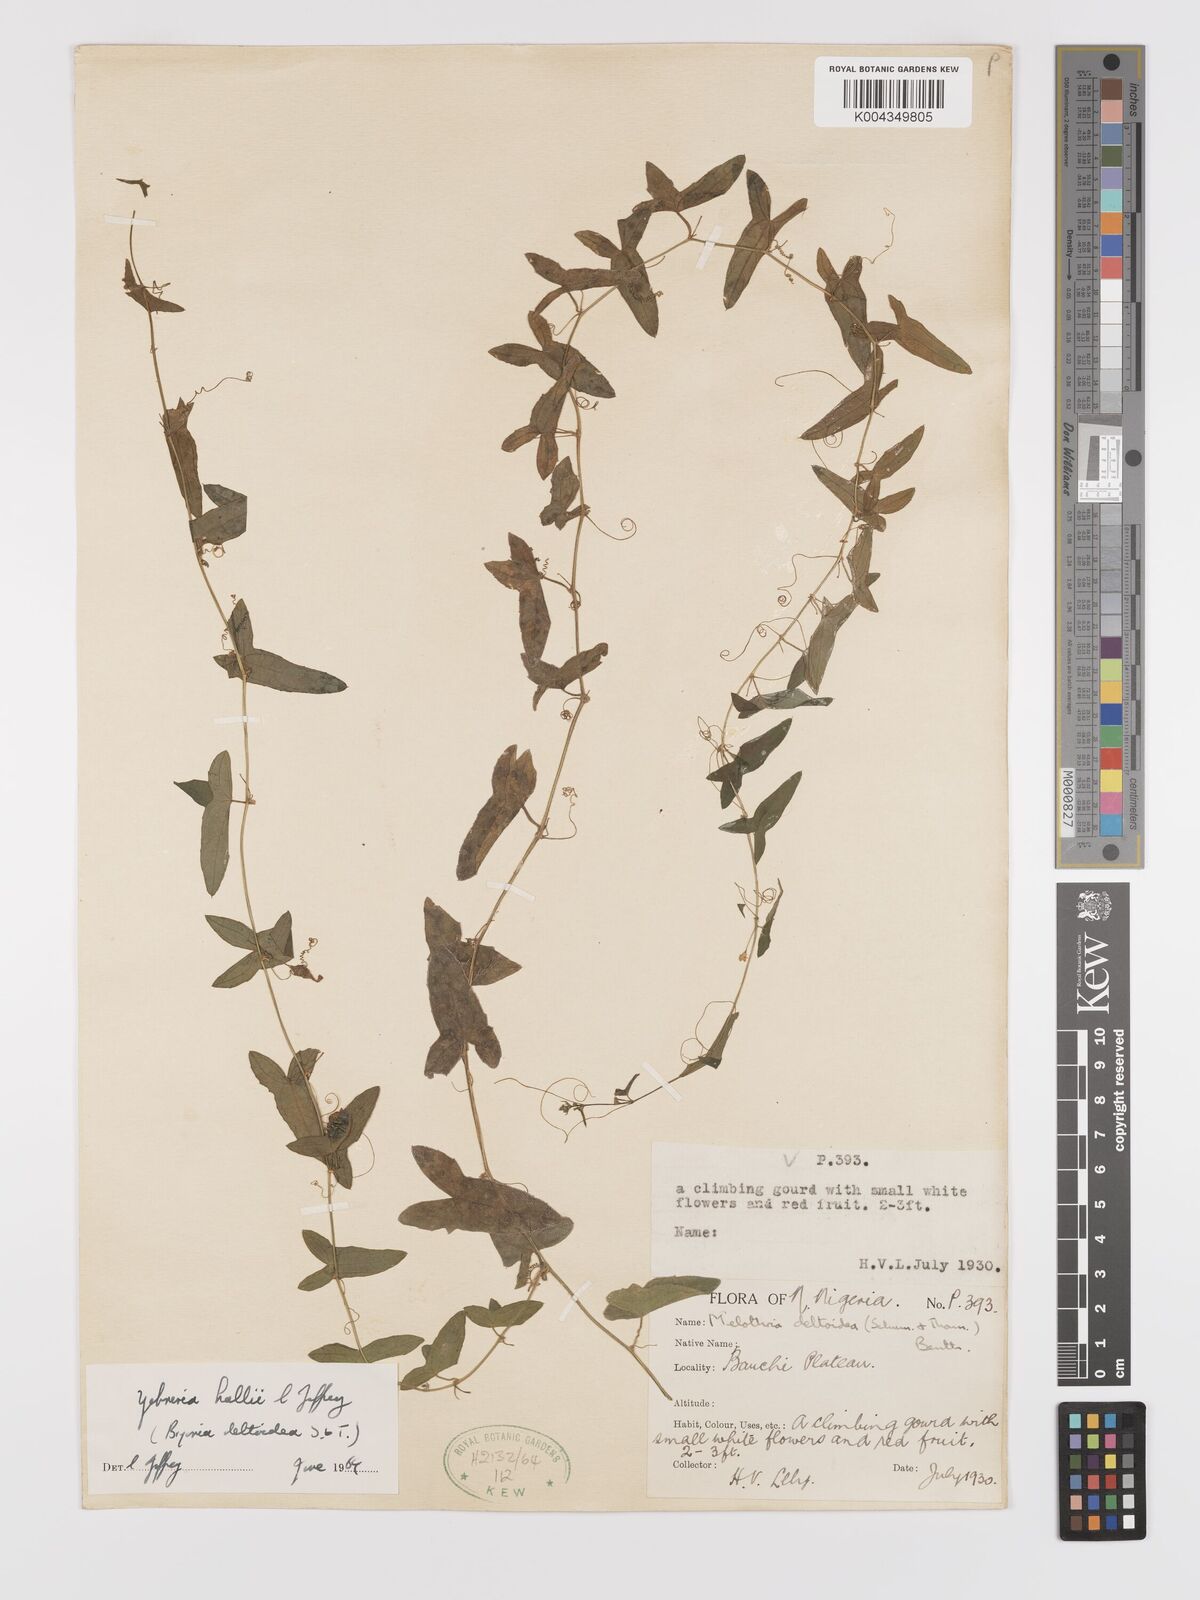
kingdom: Plantae
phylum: Tracheophyta
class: Magnoliopsida
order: Cucurbitales
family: Cucurbitaceae
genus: Zehneria
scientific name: Zehneria hallii
